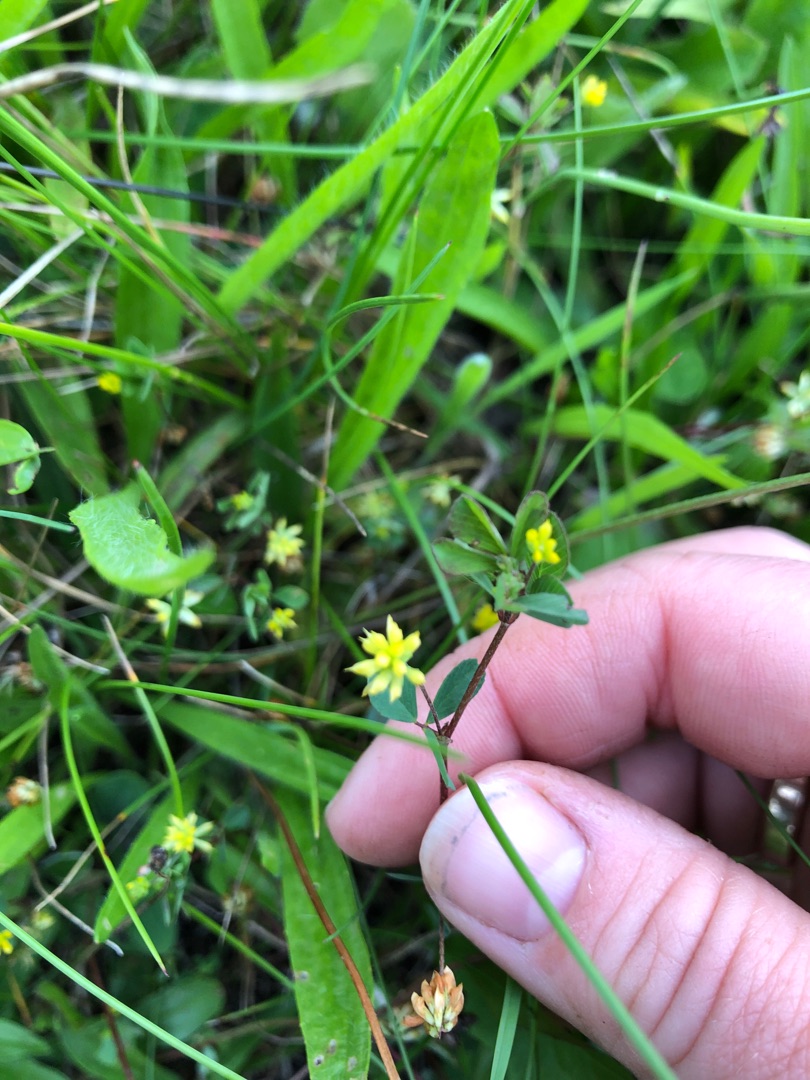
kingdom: Plantae
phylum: Tracheophyta
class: Magnoliopsida
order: Fabales
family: Fabaceae
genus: Trifolium
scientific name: Trifolium dubium
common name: Fin kløver
